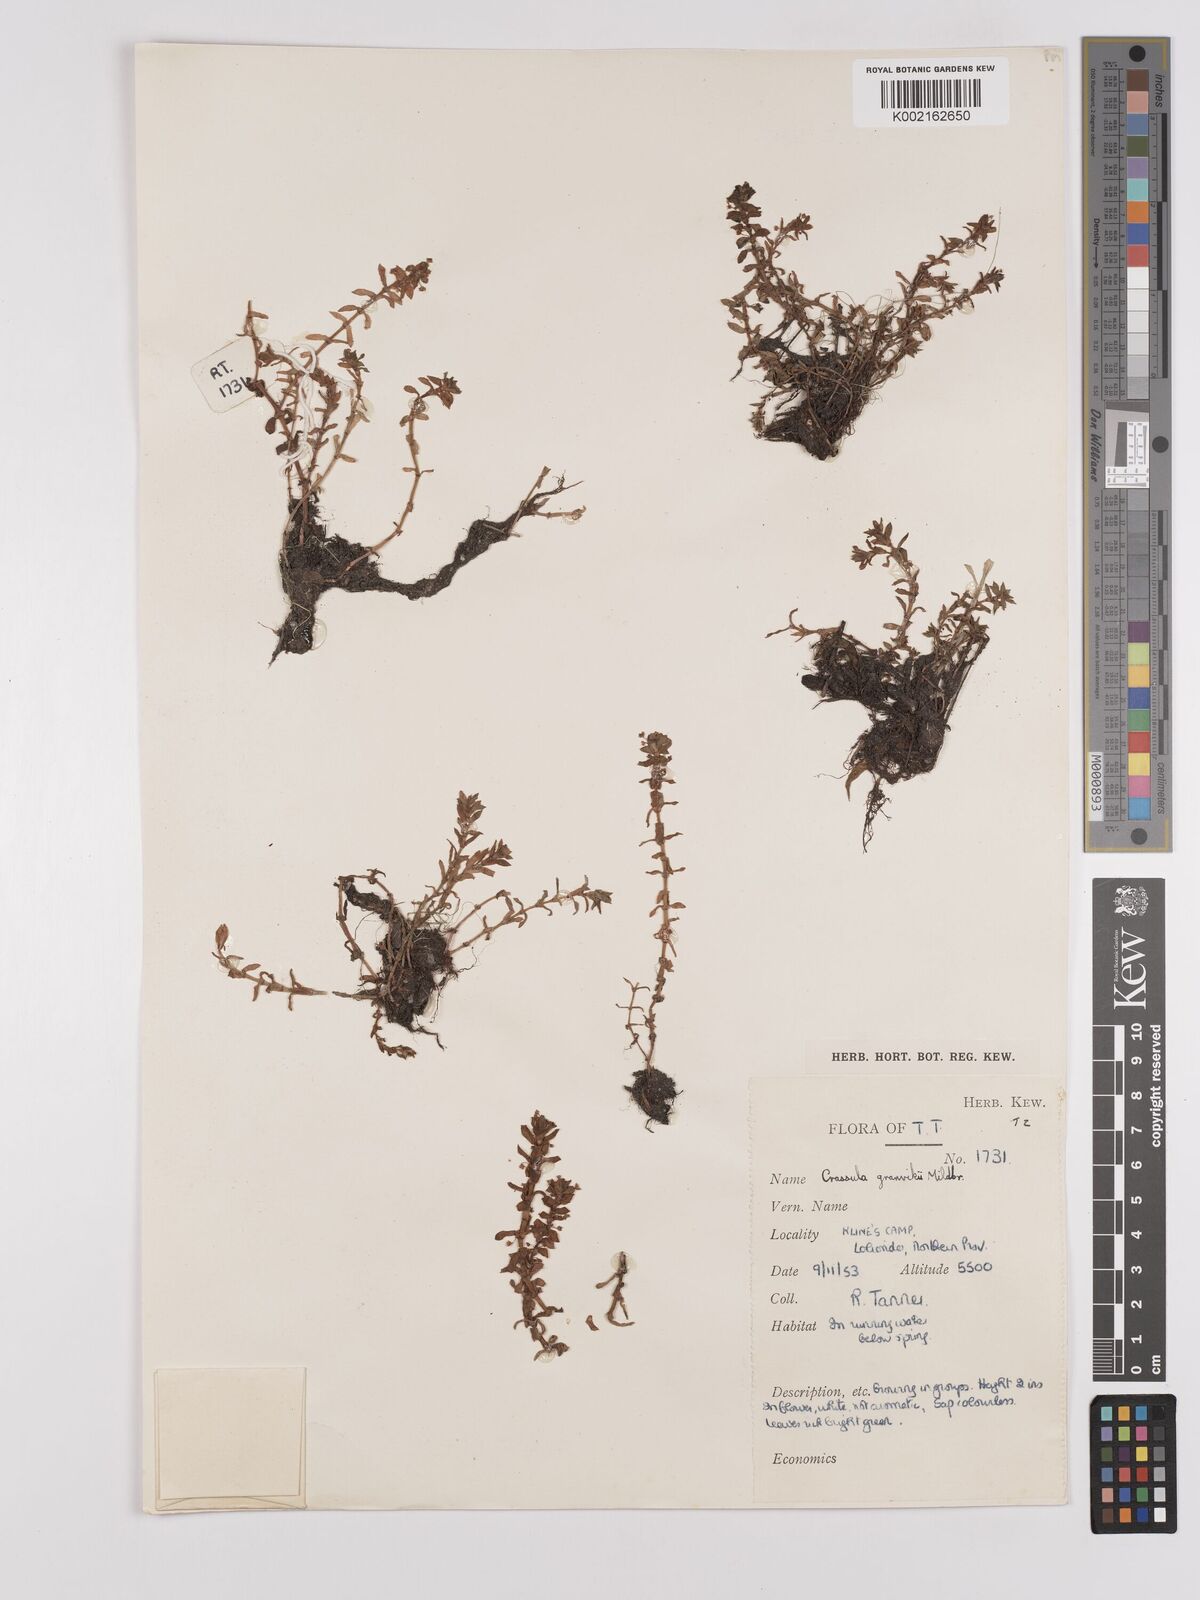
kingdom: Plantae
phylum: Tracheophyta
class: Magnoliopsida
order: Saxifragales
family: Crassulaceae
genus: Crassula
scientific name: Crassula granvikii
